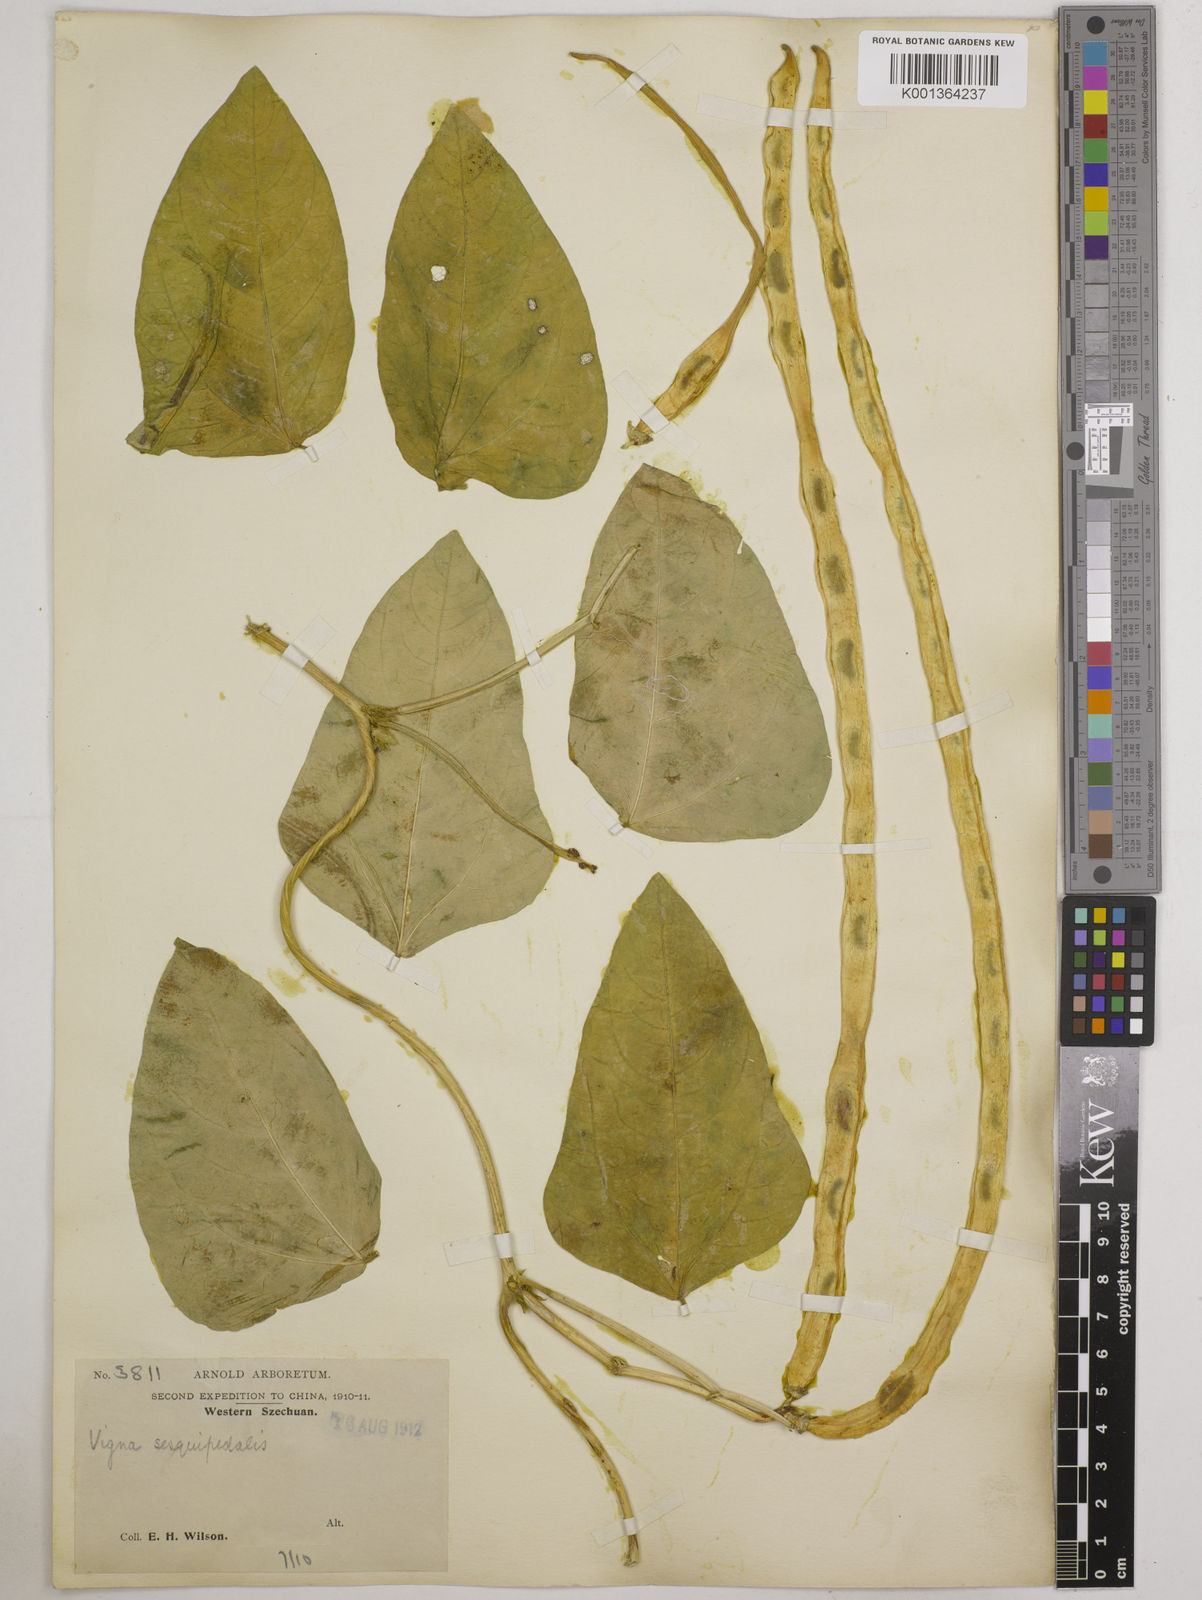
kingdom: Plantae
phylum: Tracheophyta
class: Magnoliopsida
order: Fabales
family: Fabaceae
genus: Vigna
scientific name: Vigna unguiculata
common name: Cowpea
